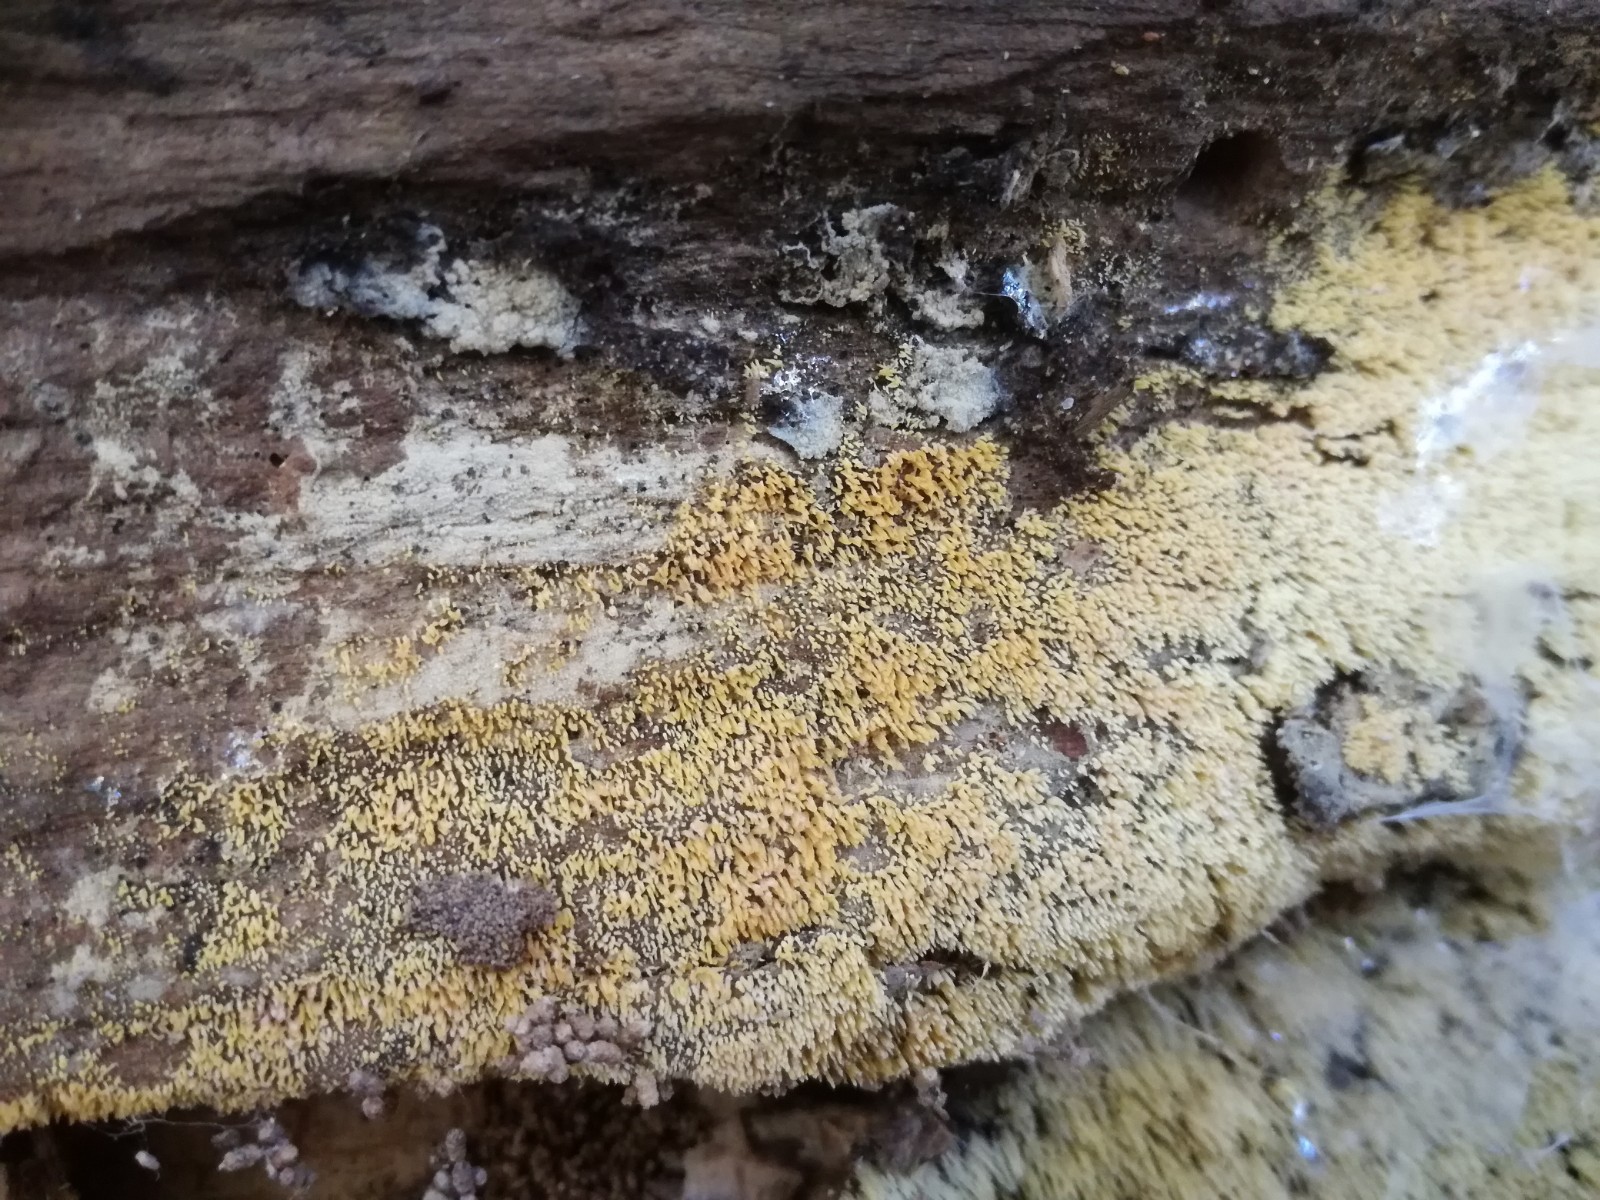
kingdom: Fungi
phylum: Basidiomycota
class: Agaricomycetes
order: Agaricales
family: Clavariaceae
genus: Mucronella
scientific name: Mucronella calva
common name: hvid hængepig
